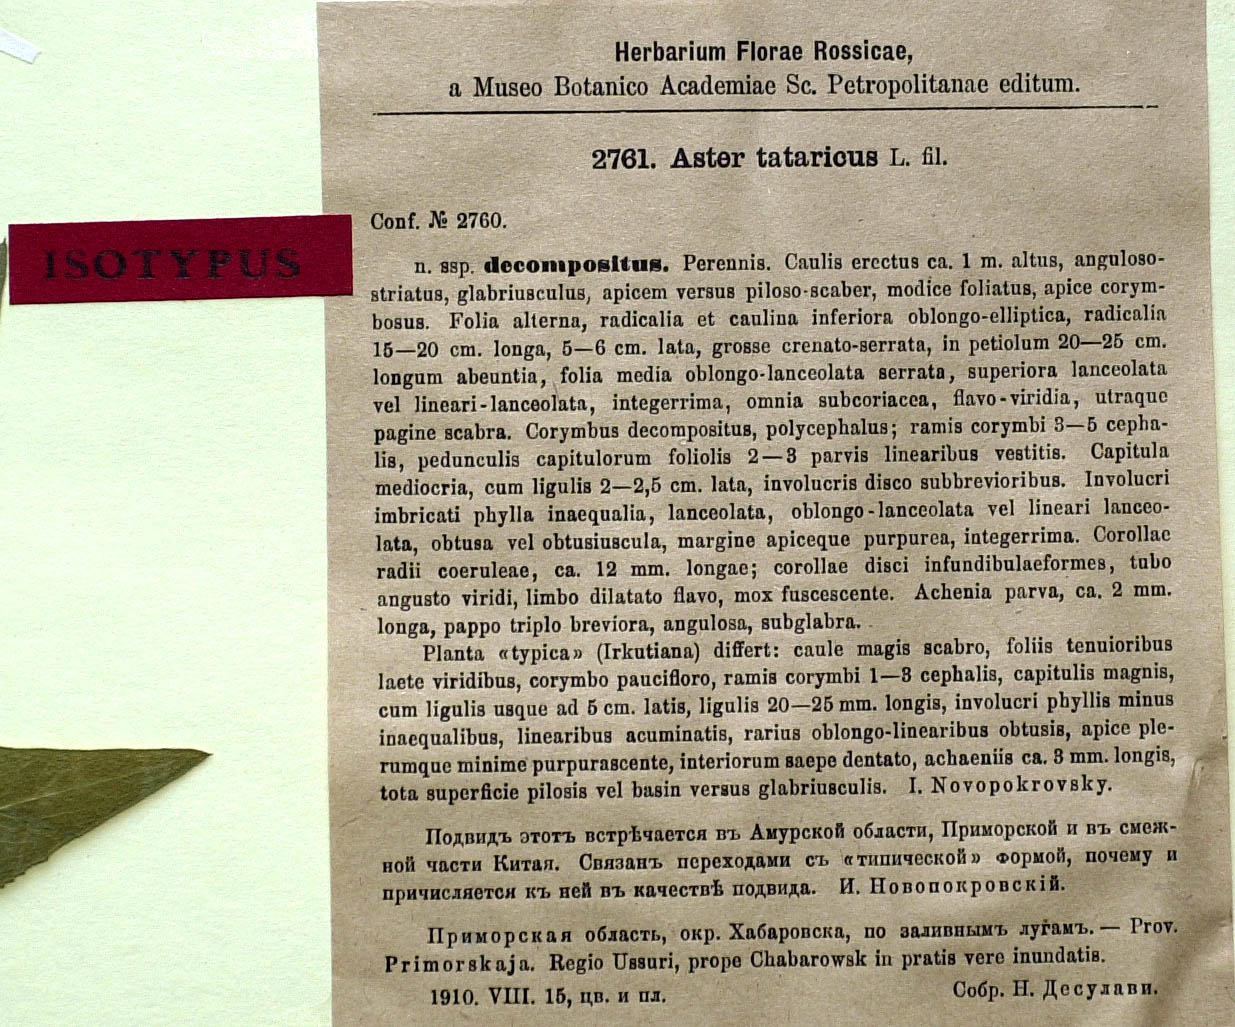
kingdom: Plantae
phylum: Tracheophyta
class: Magnoliopsida
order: Asterales
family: Asteraceae
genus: Aster
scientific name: Aster tataricus
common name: Tatarian aster
